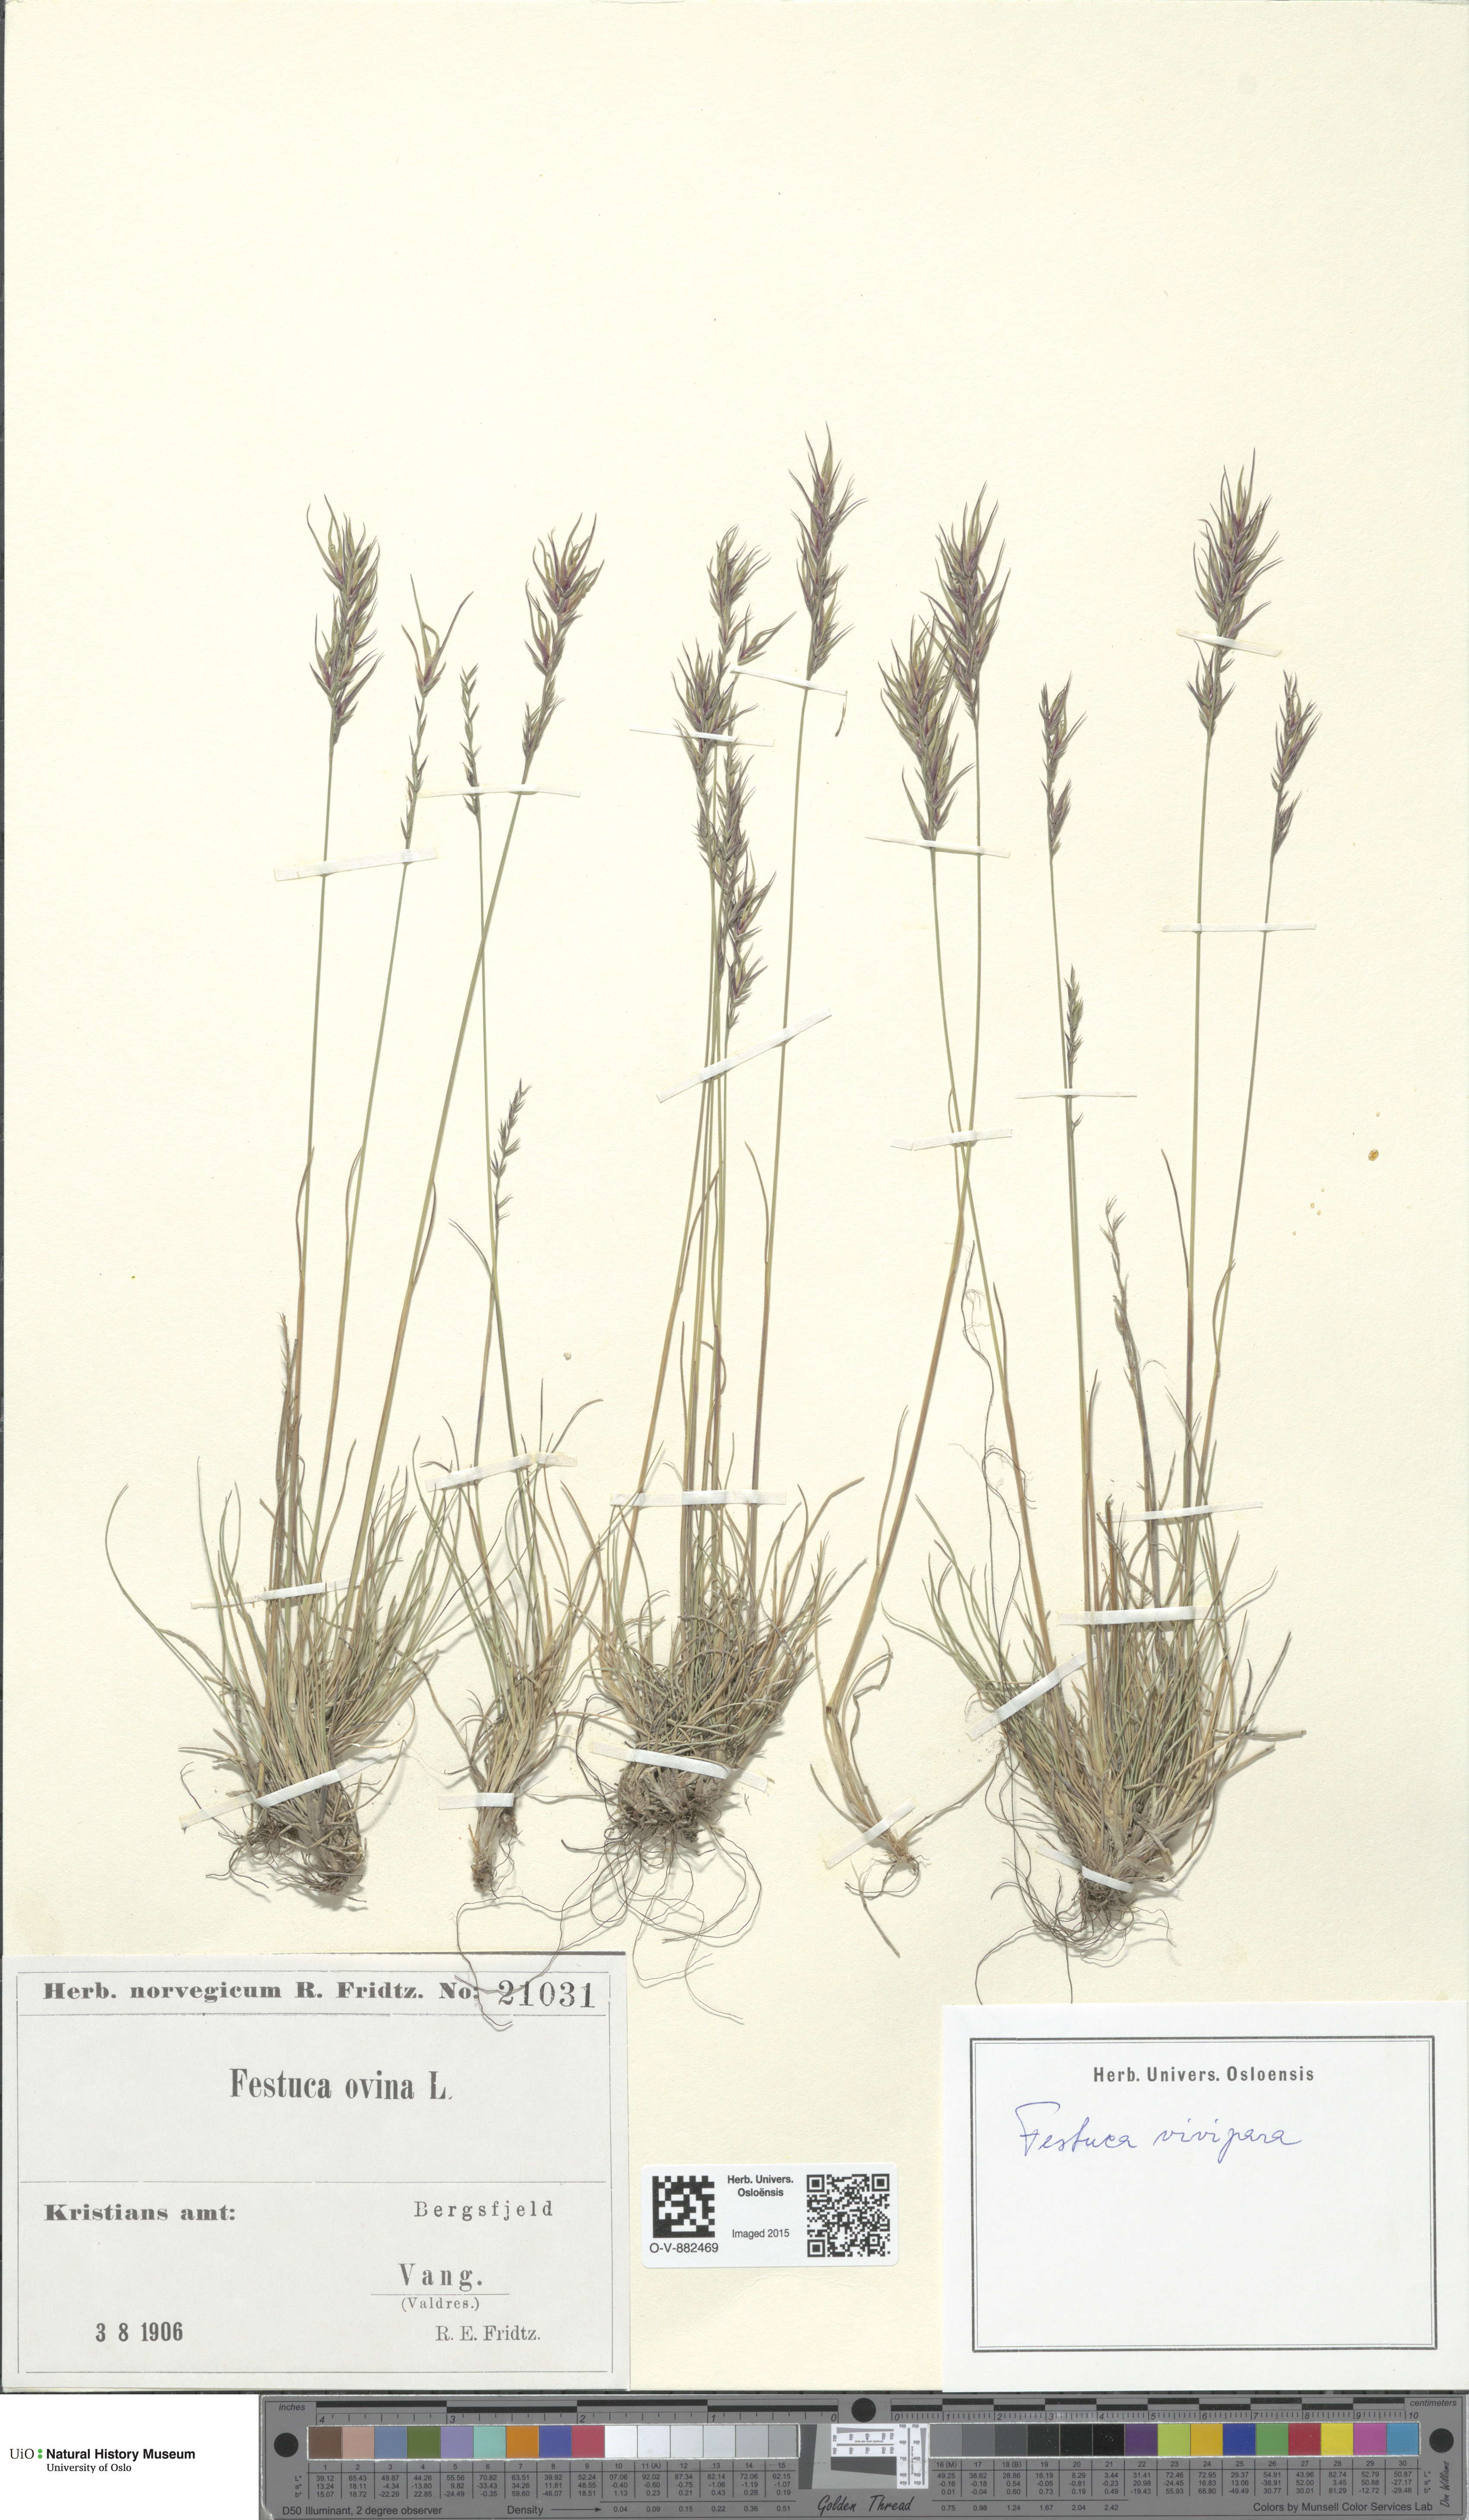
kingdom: Plantae
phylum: Tracheophyta
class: Liliopsida
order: Poales
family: Poaceae
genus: Festuca
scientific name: Festuca vivipara
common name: Viviparous sheep's-fescue
